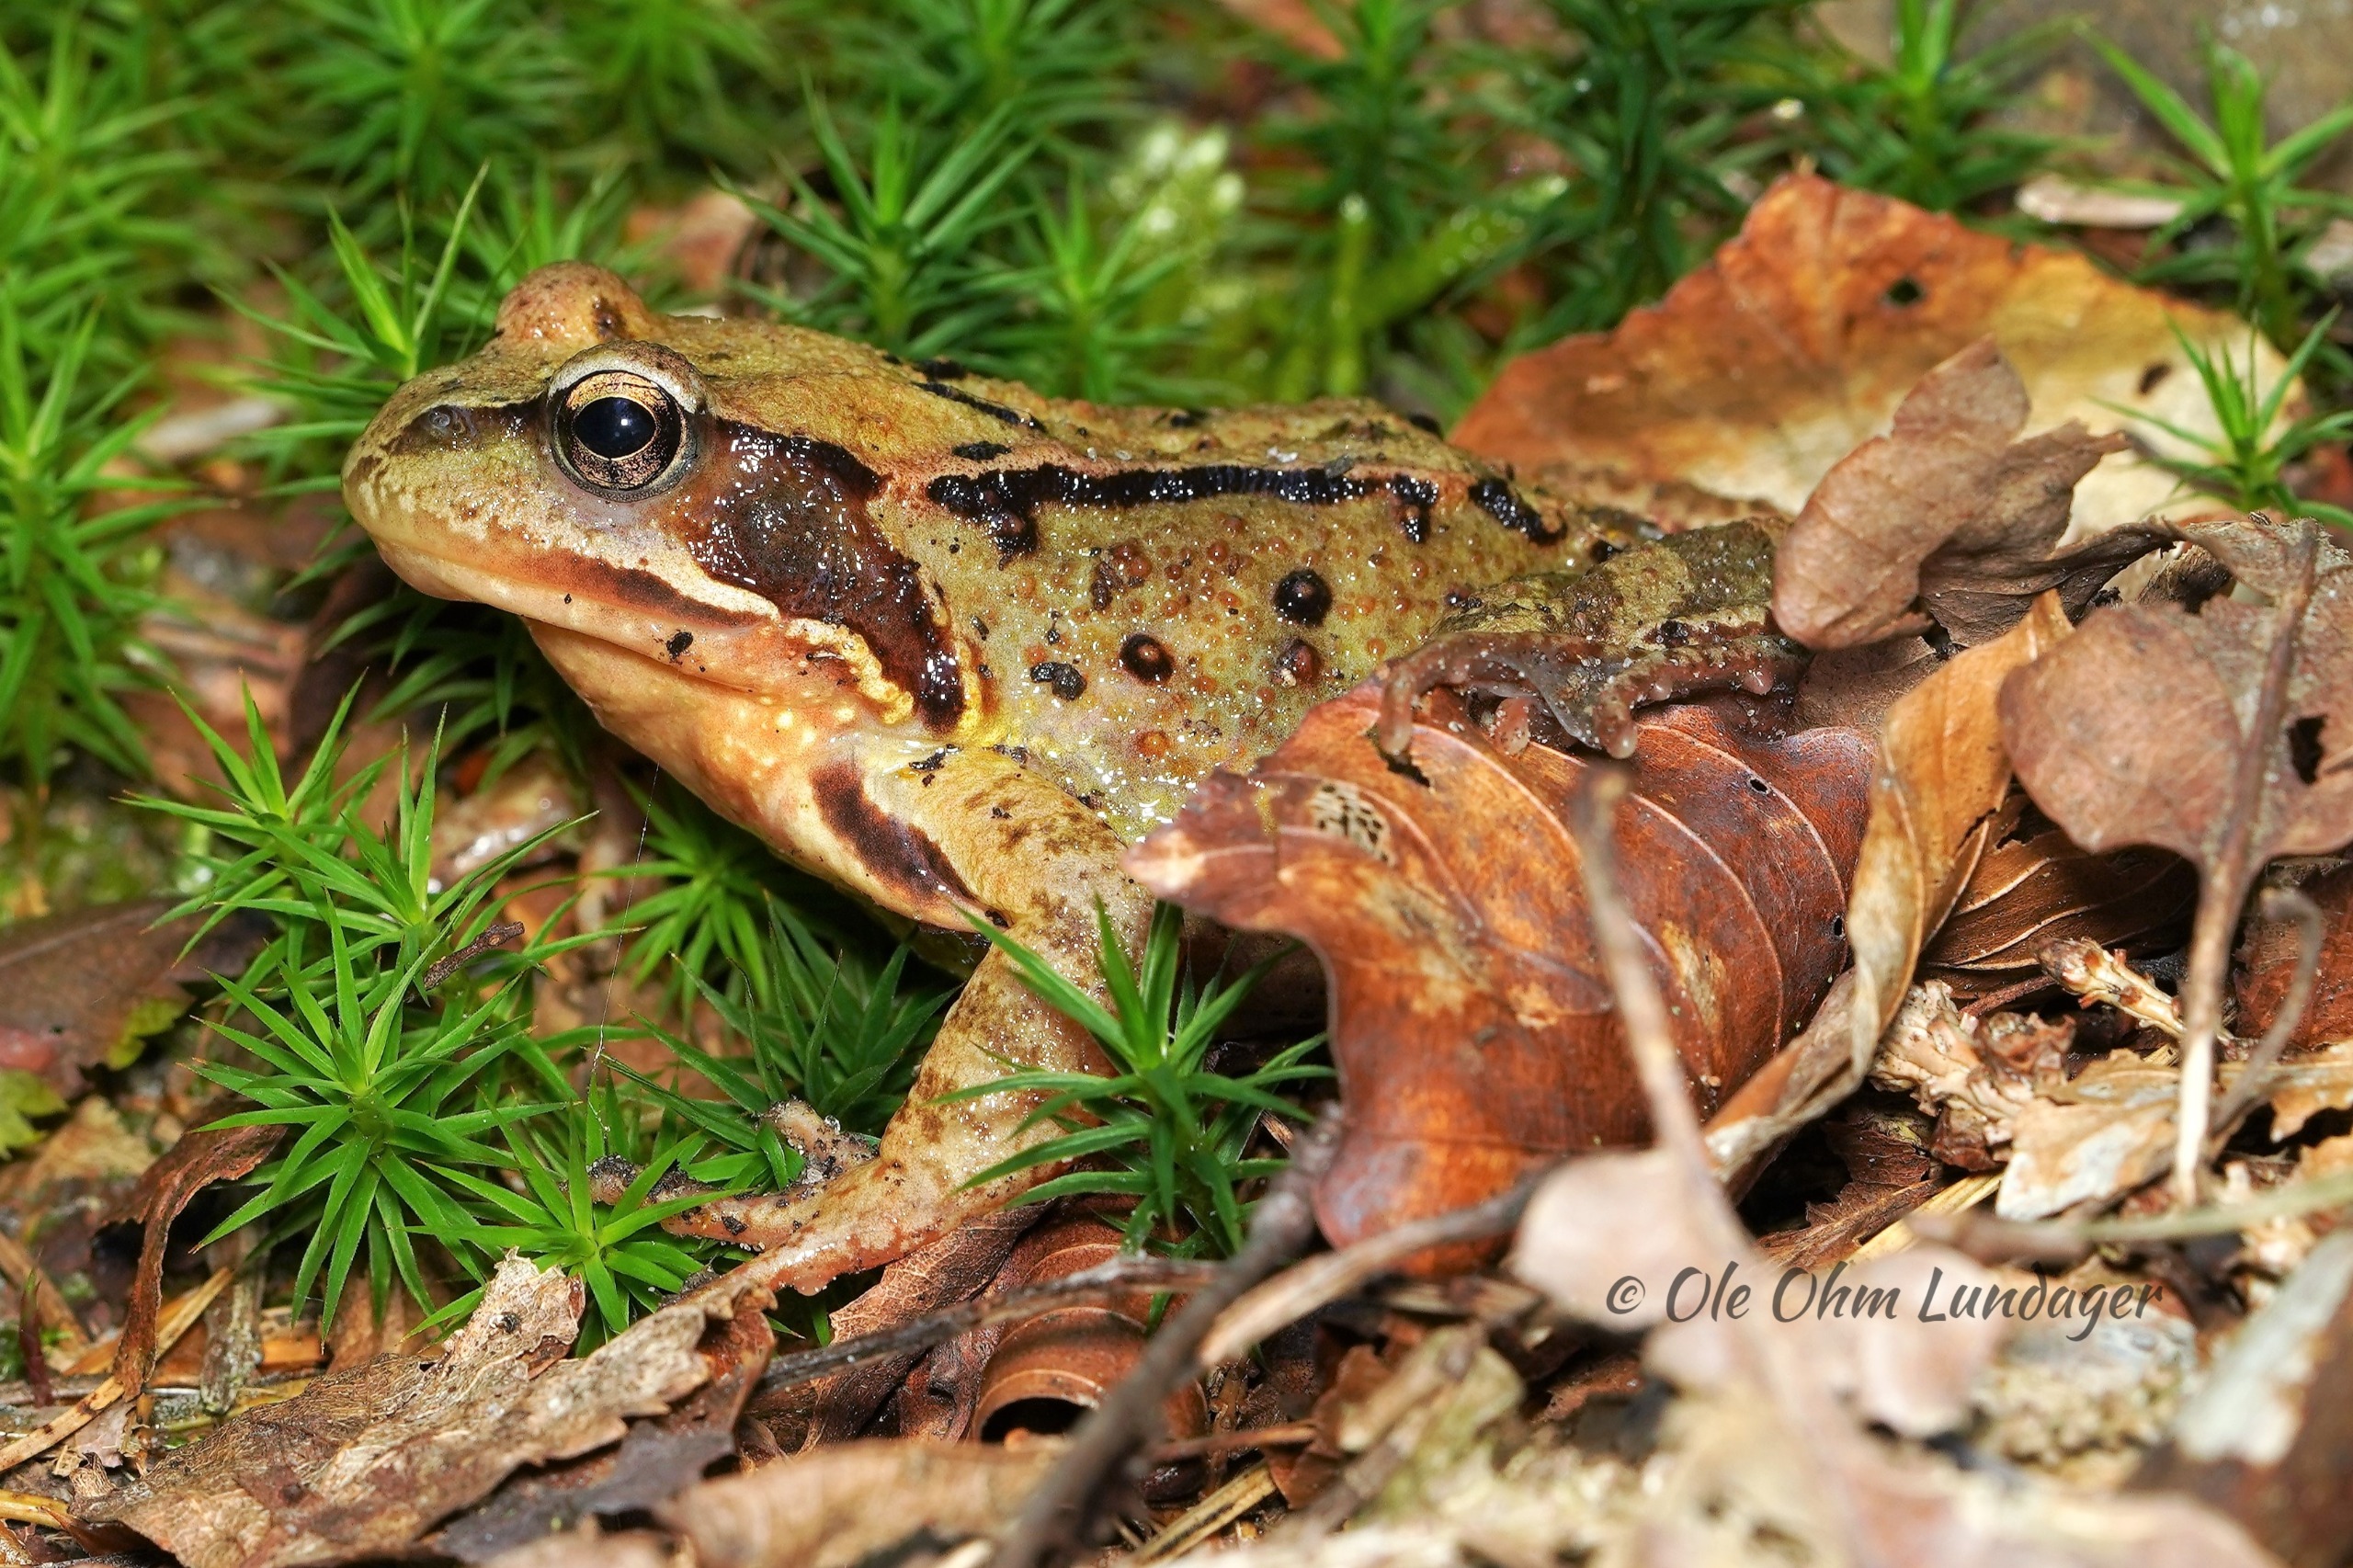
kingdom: Animalia
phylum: Chordata
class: Amphibia
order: Anura
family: Ranidae
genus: Rana
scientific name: Rana temporaria
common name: Butsnudet frø
